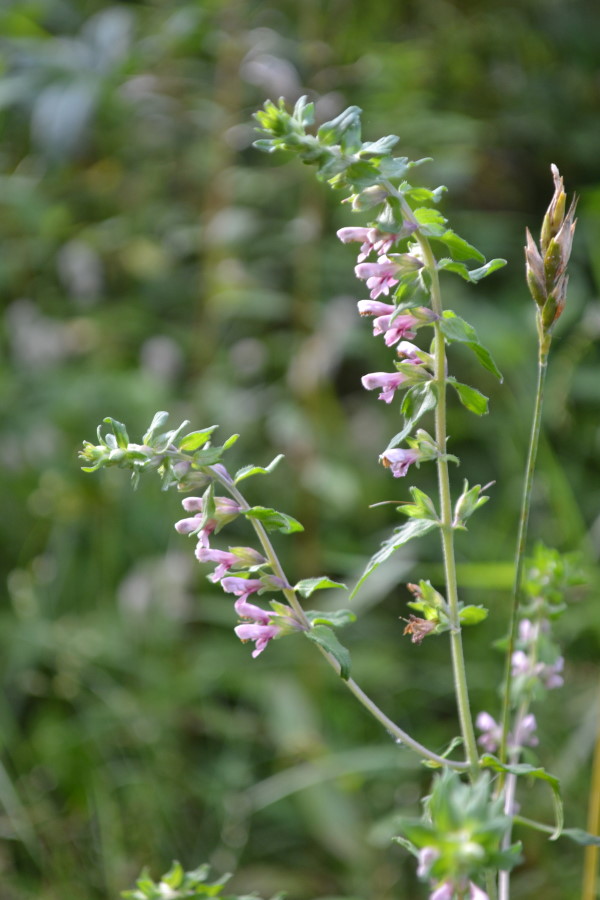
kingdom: Plantae
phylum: Tracheophyta
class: Magnoliopsida
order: Lamiales
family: Orobanchaceae
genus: Odontites
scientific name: Odontites vulgaris
